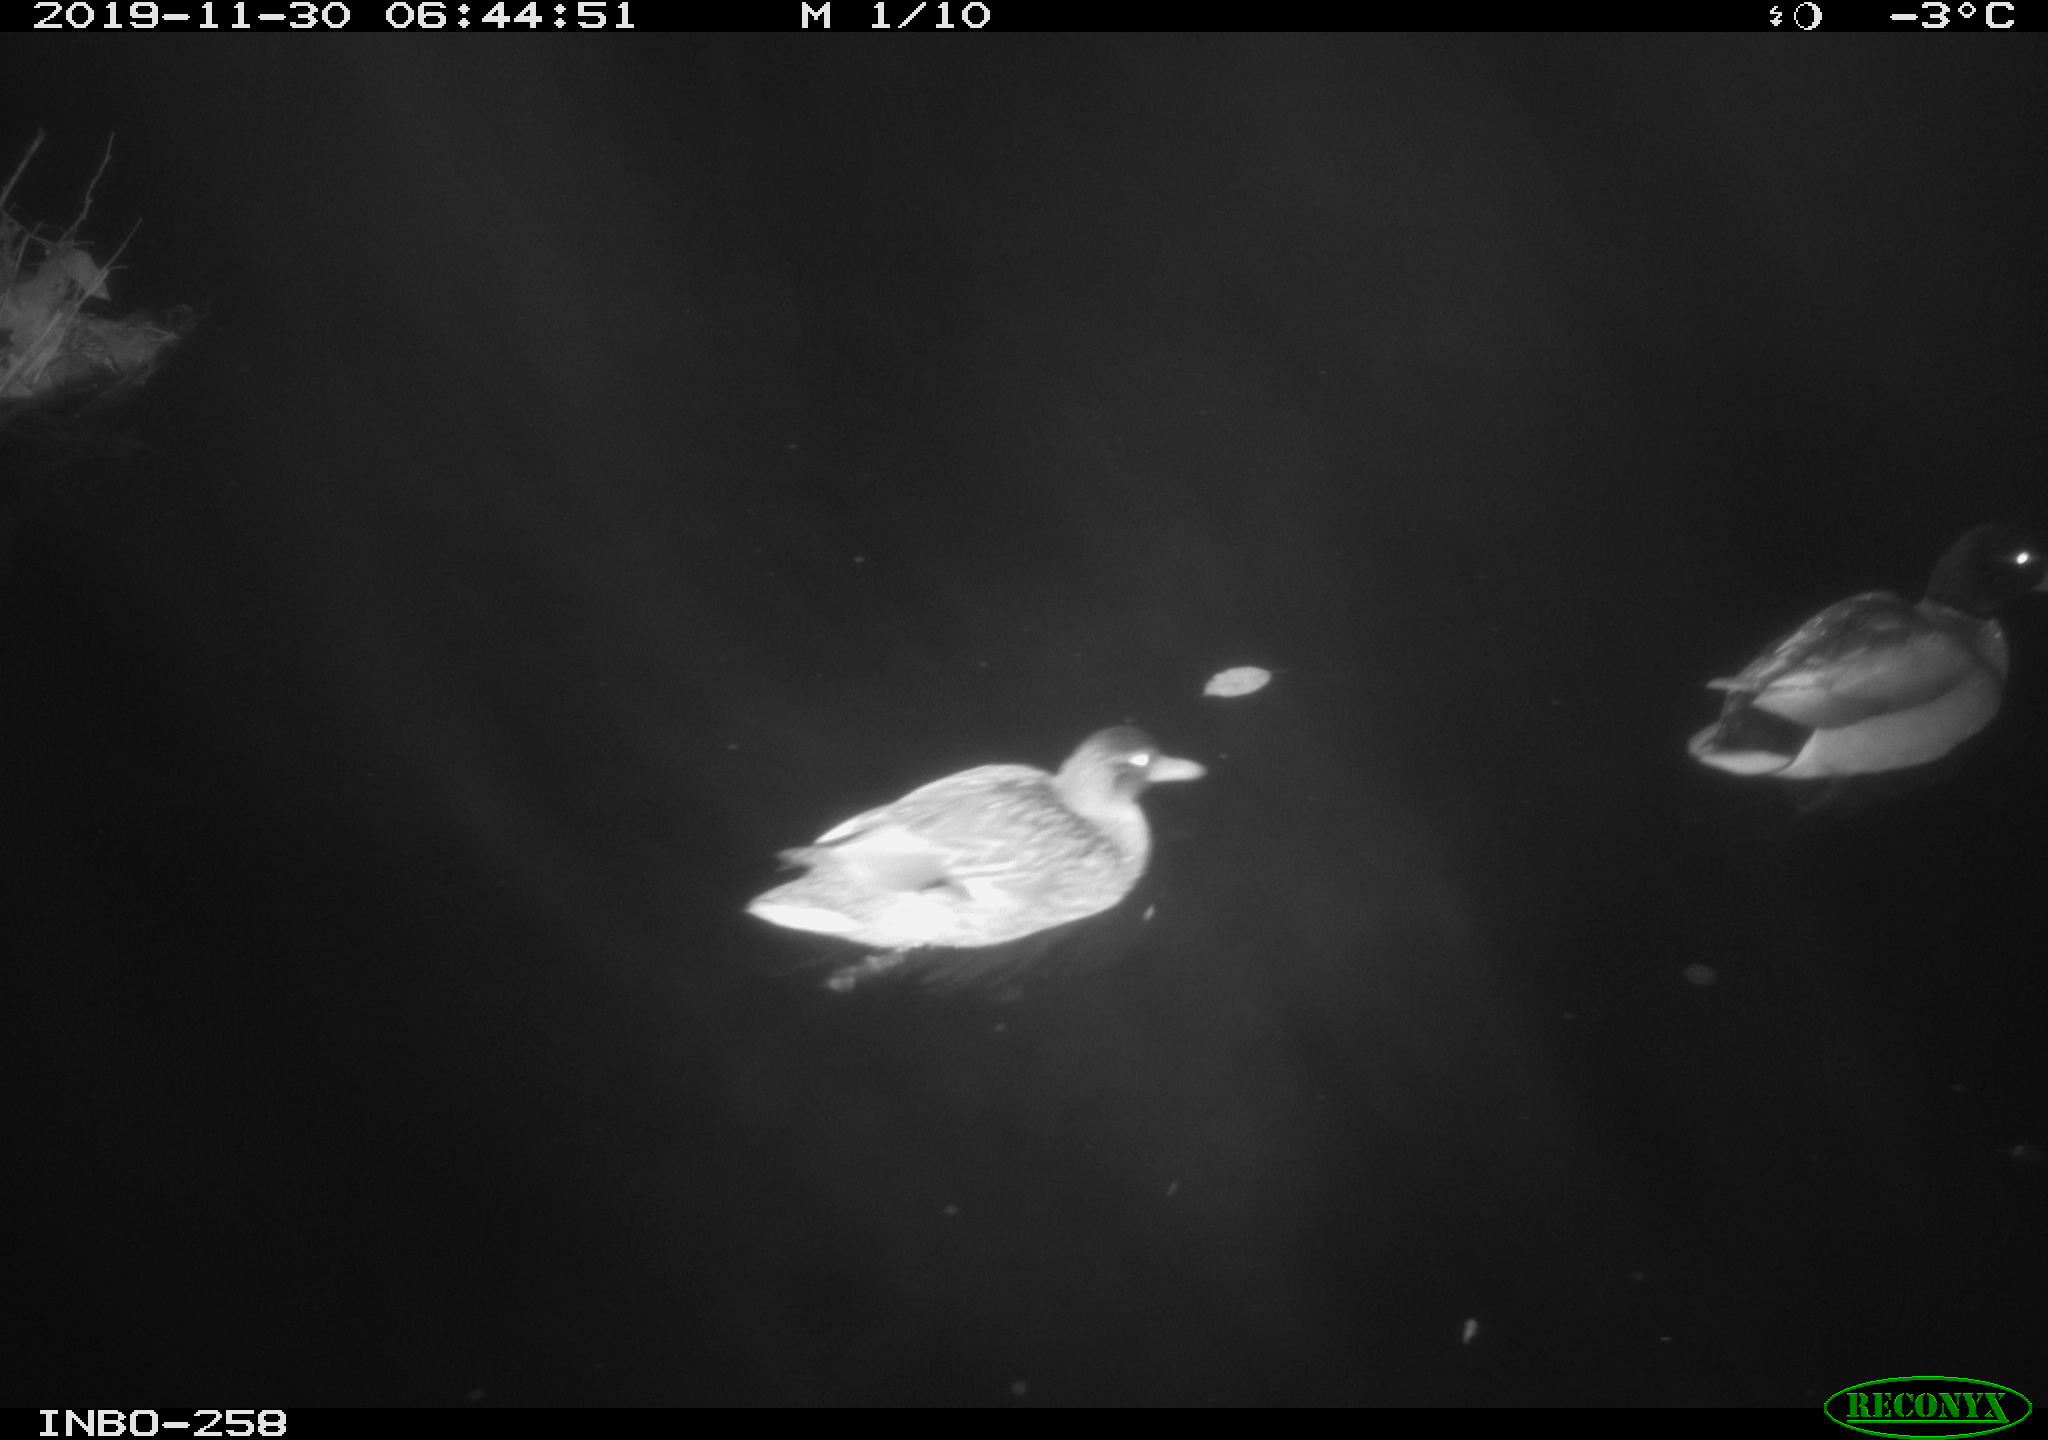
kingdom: Animalia
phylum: Chordata
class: Aves
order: Anseriformes
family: Anatidae
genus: Anas
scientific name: Anas platyrhynchos
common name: Mallard
